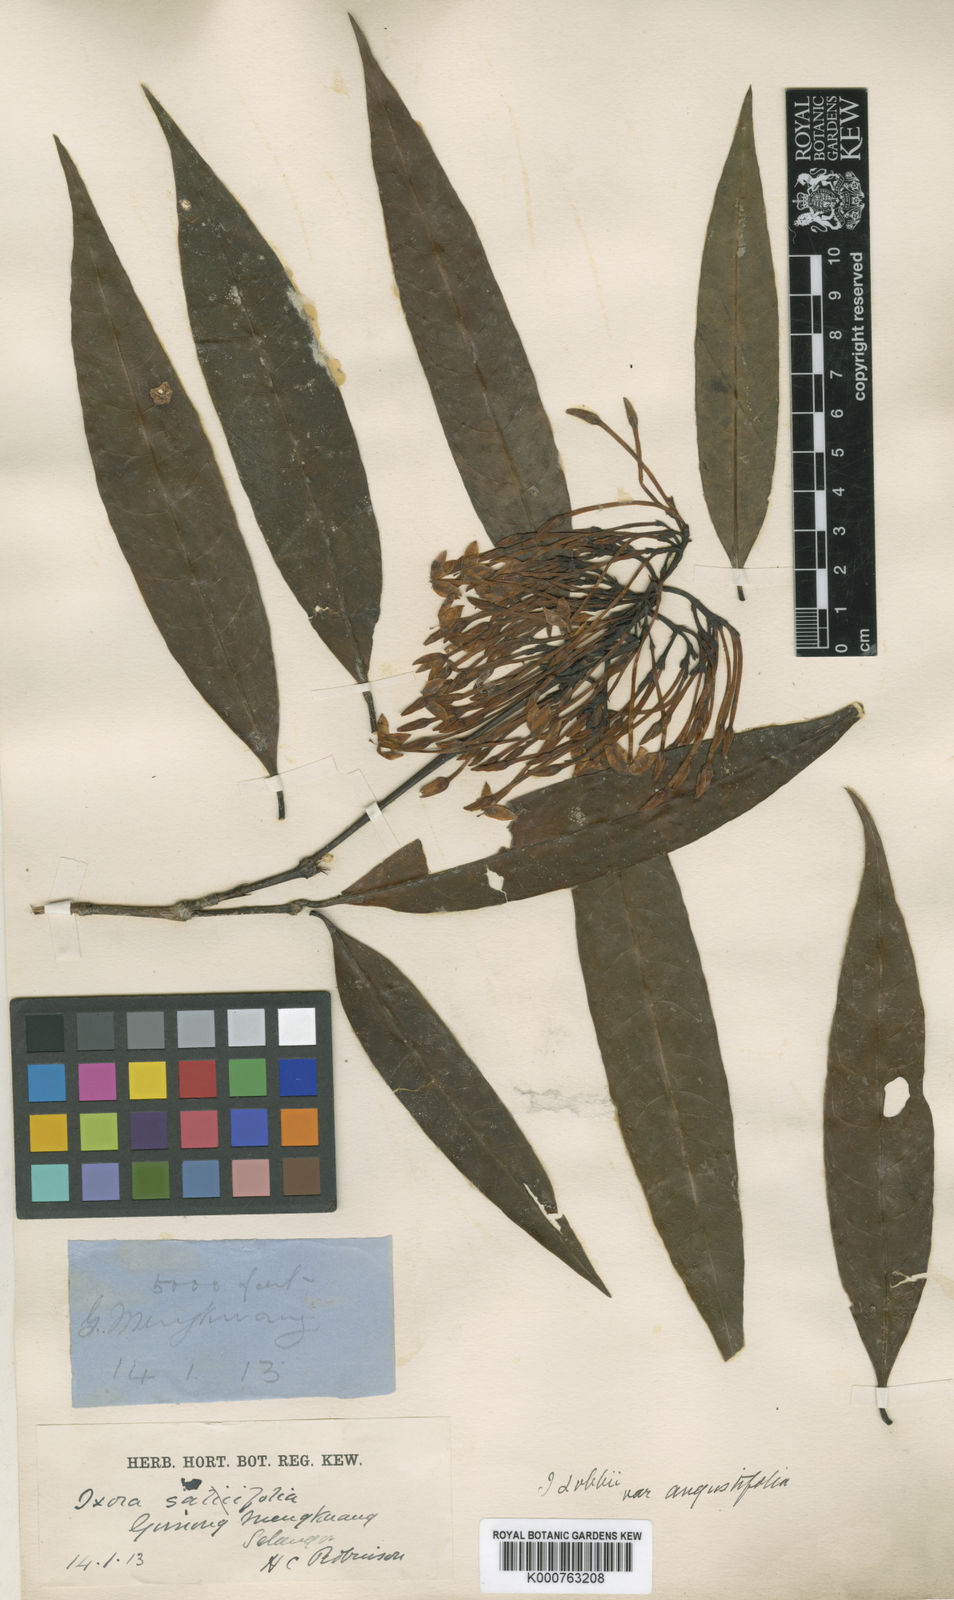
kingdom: Plantae
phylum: Tracheophyta
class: Magnoliopsida
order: Gentianales
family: Rubiaceae
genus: Ixora
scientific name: Ixora
